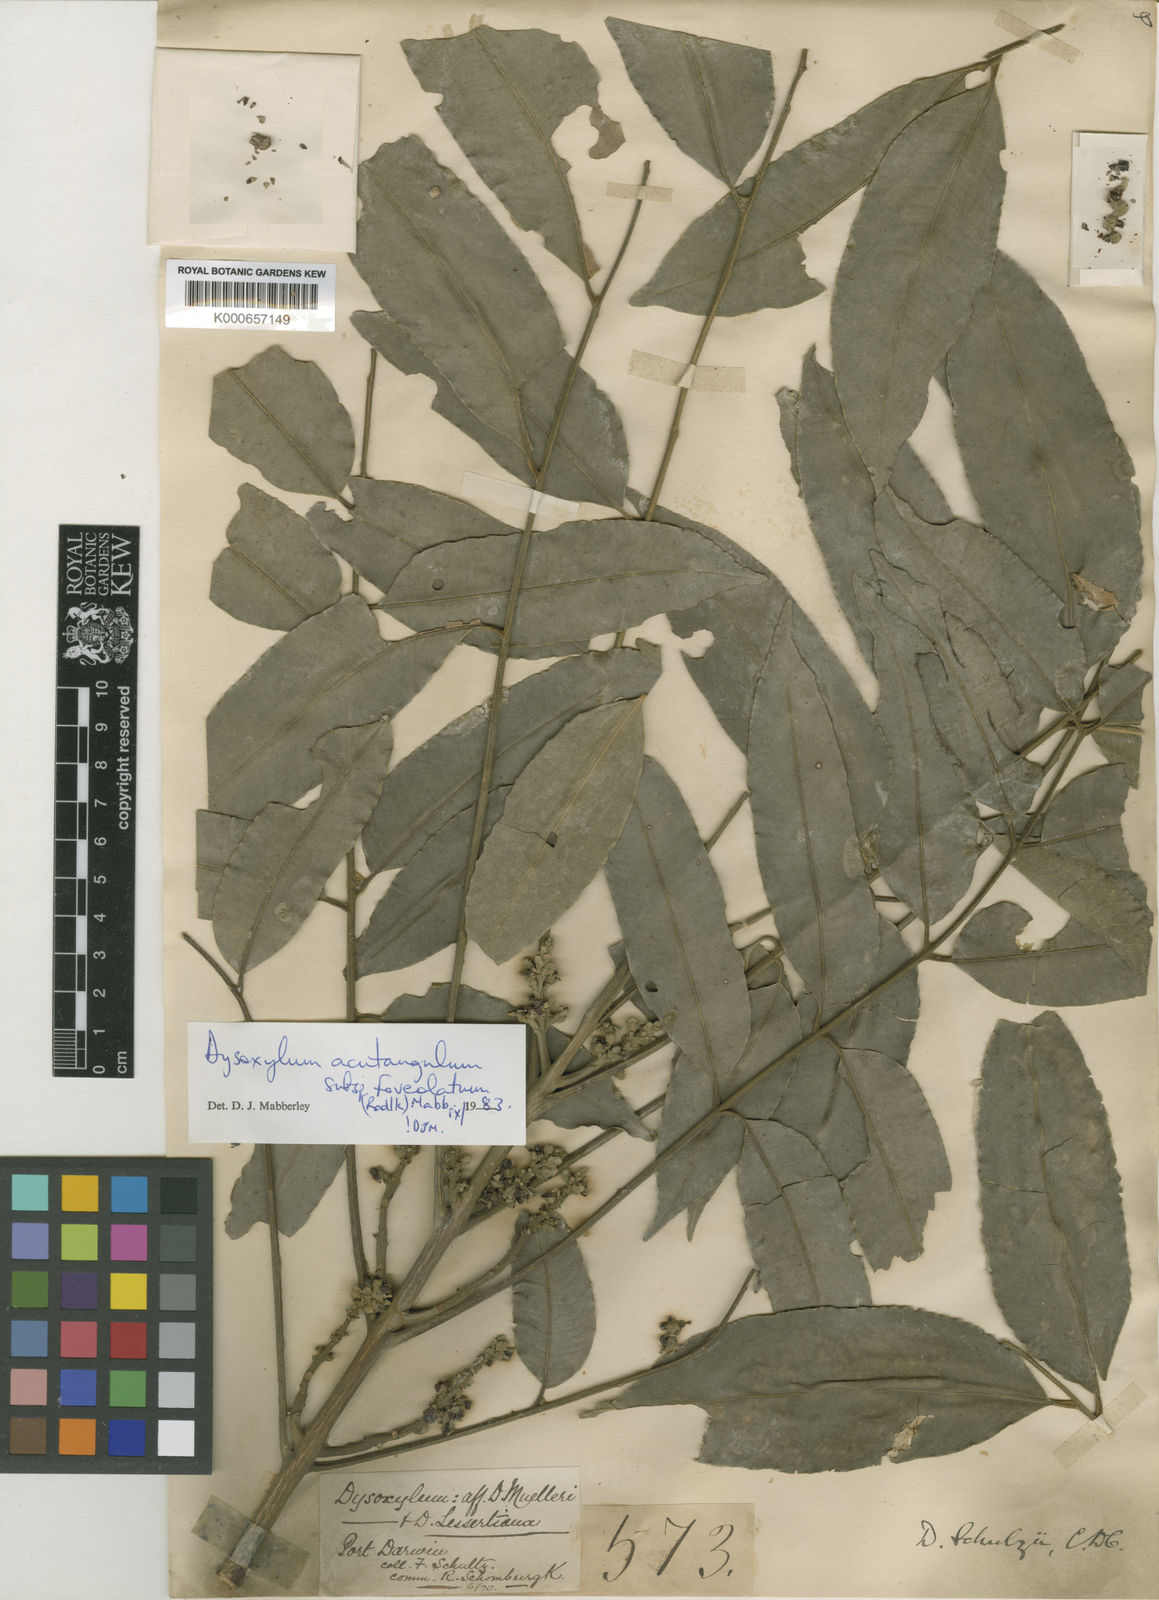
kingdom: Plantae
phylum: Tracheophyta
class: Magnoliopsida
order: Sapindales
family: Meliaceae
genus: Dysoxylum
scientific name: Dysoxylum acutangulum
